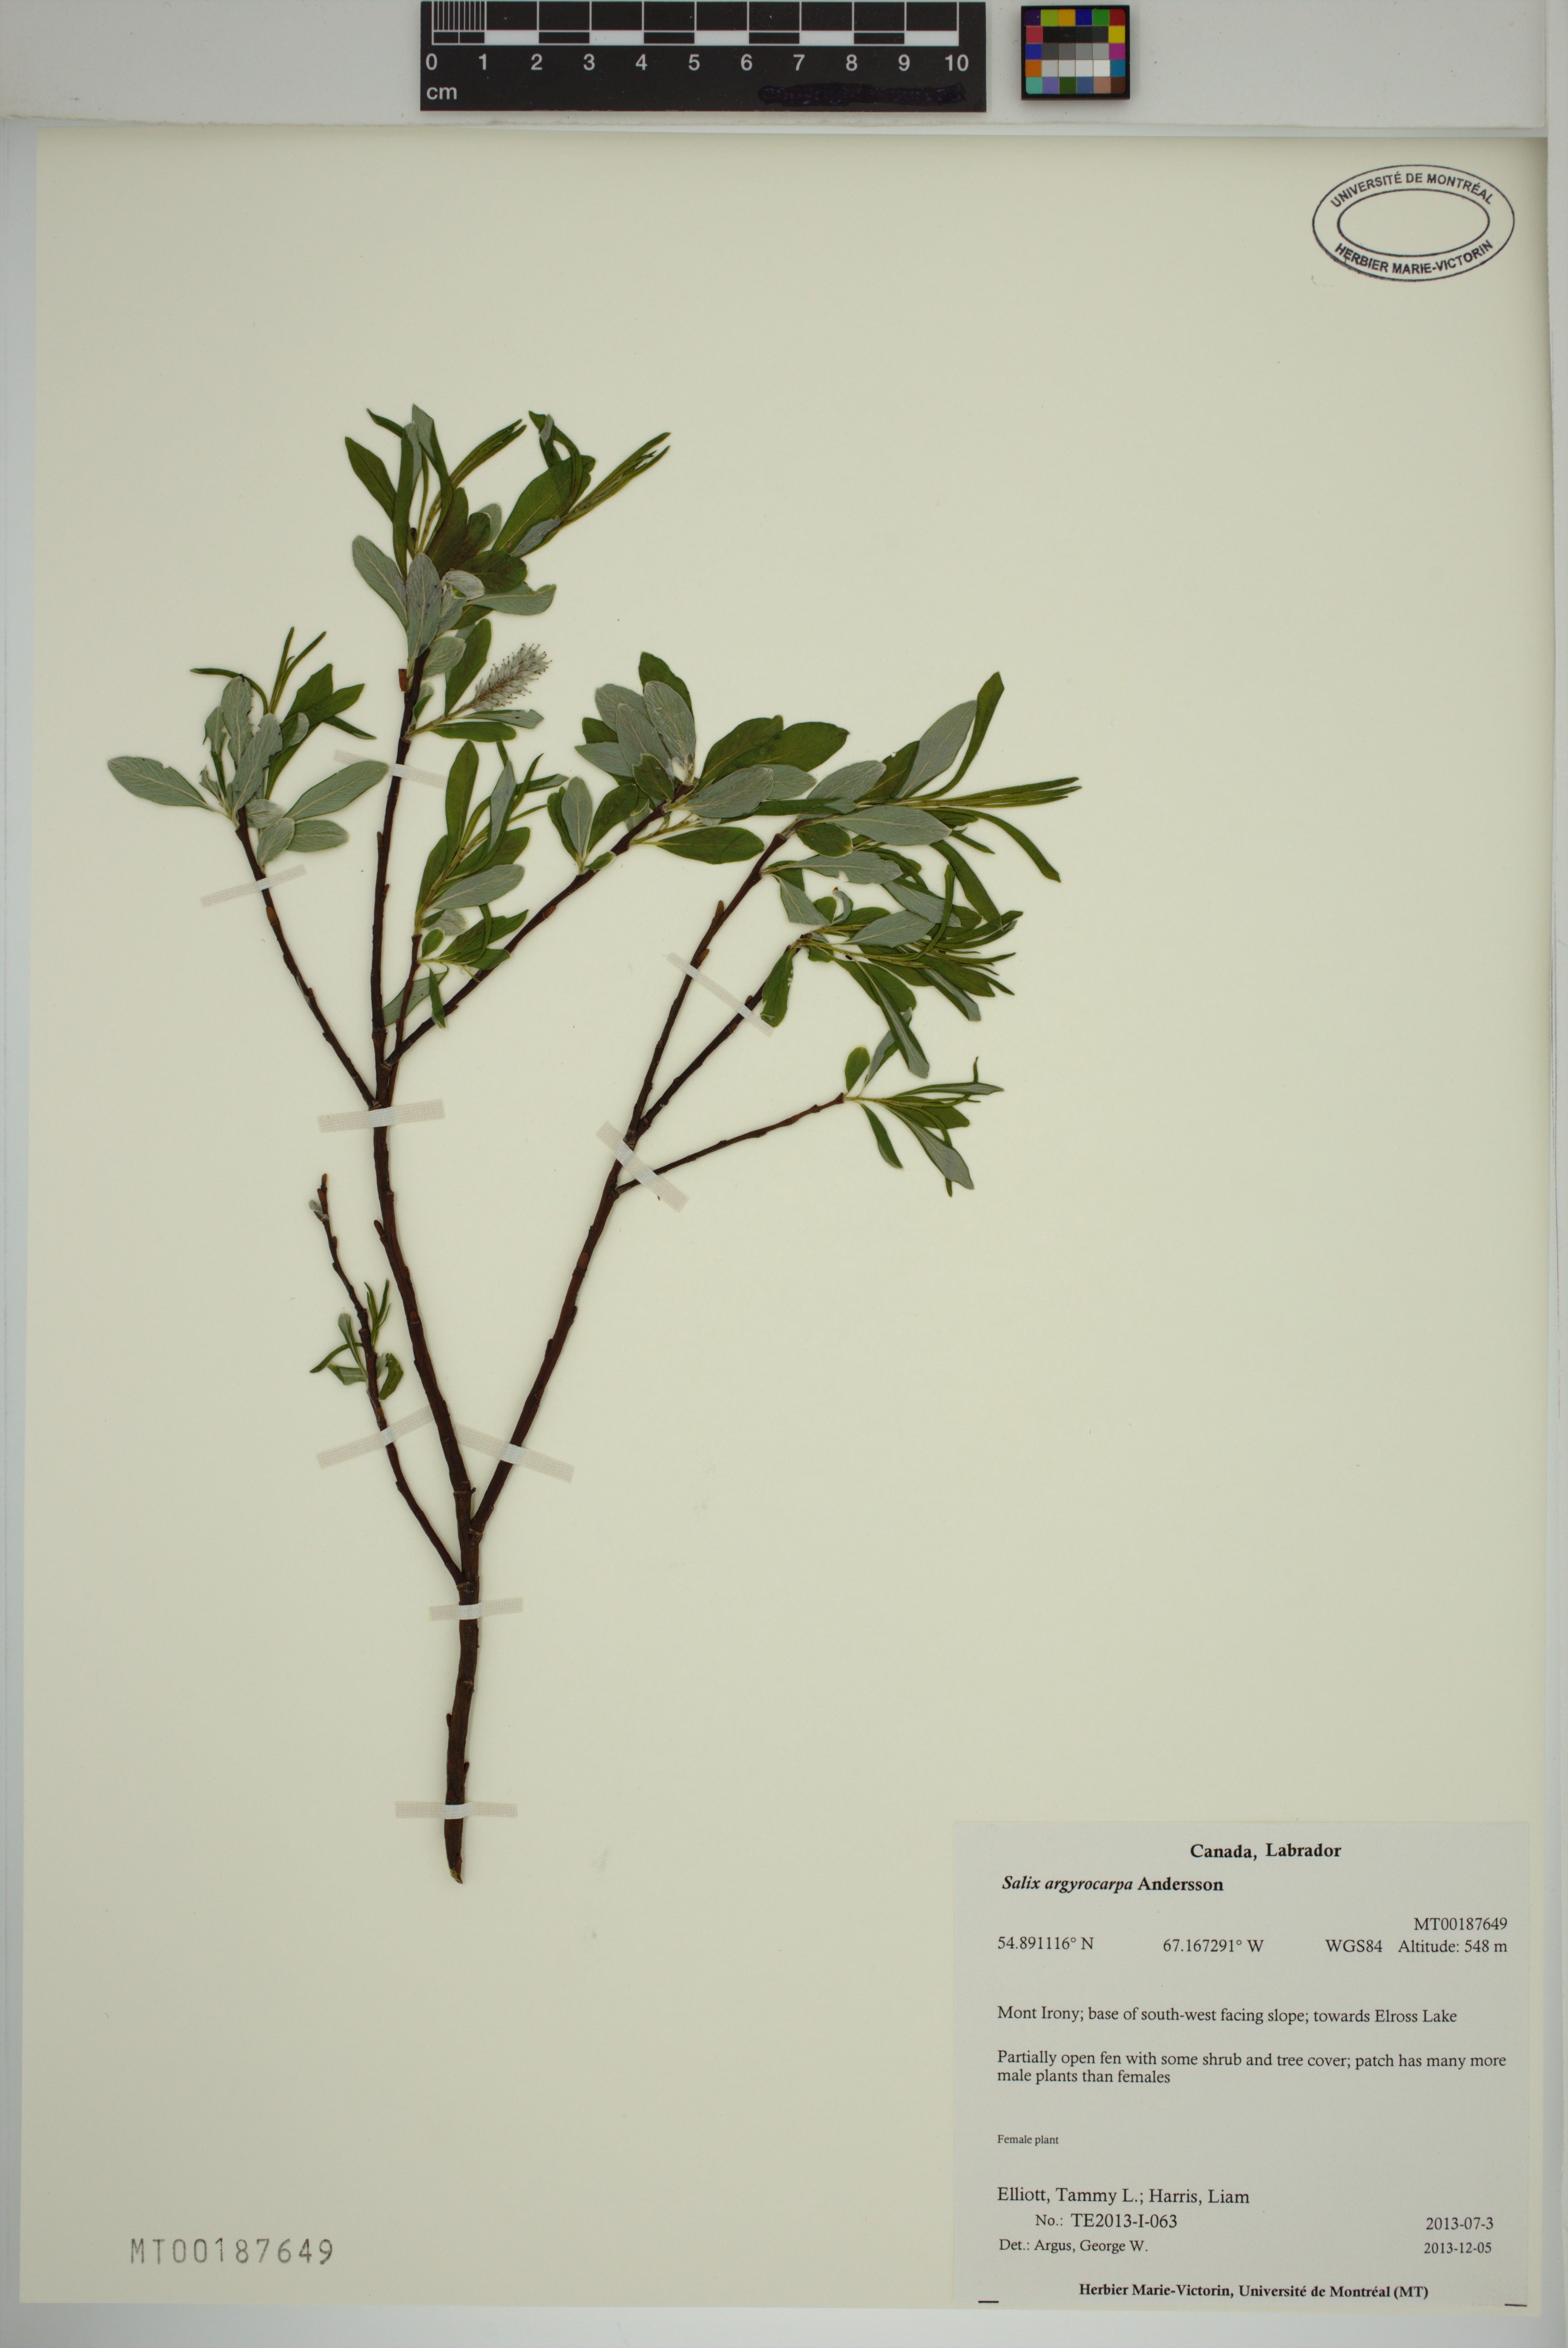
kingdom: Plantae
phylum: Tracheophyta
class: Magnoliopsida
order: Malpighiales
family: Salicaceae
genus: Salix
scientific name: Salix argyrocarpa
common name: Labrador willow
